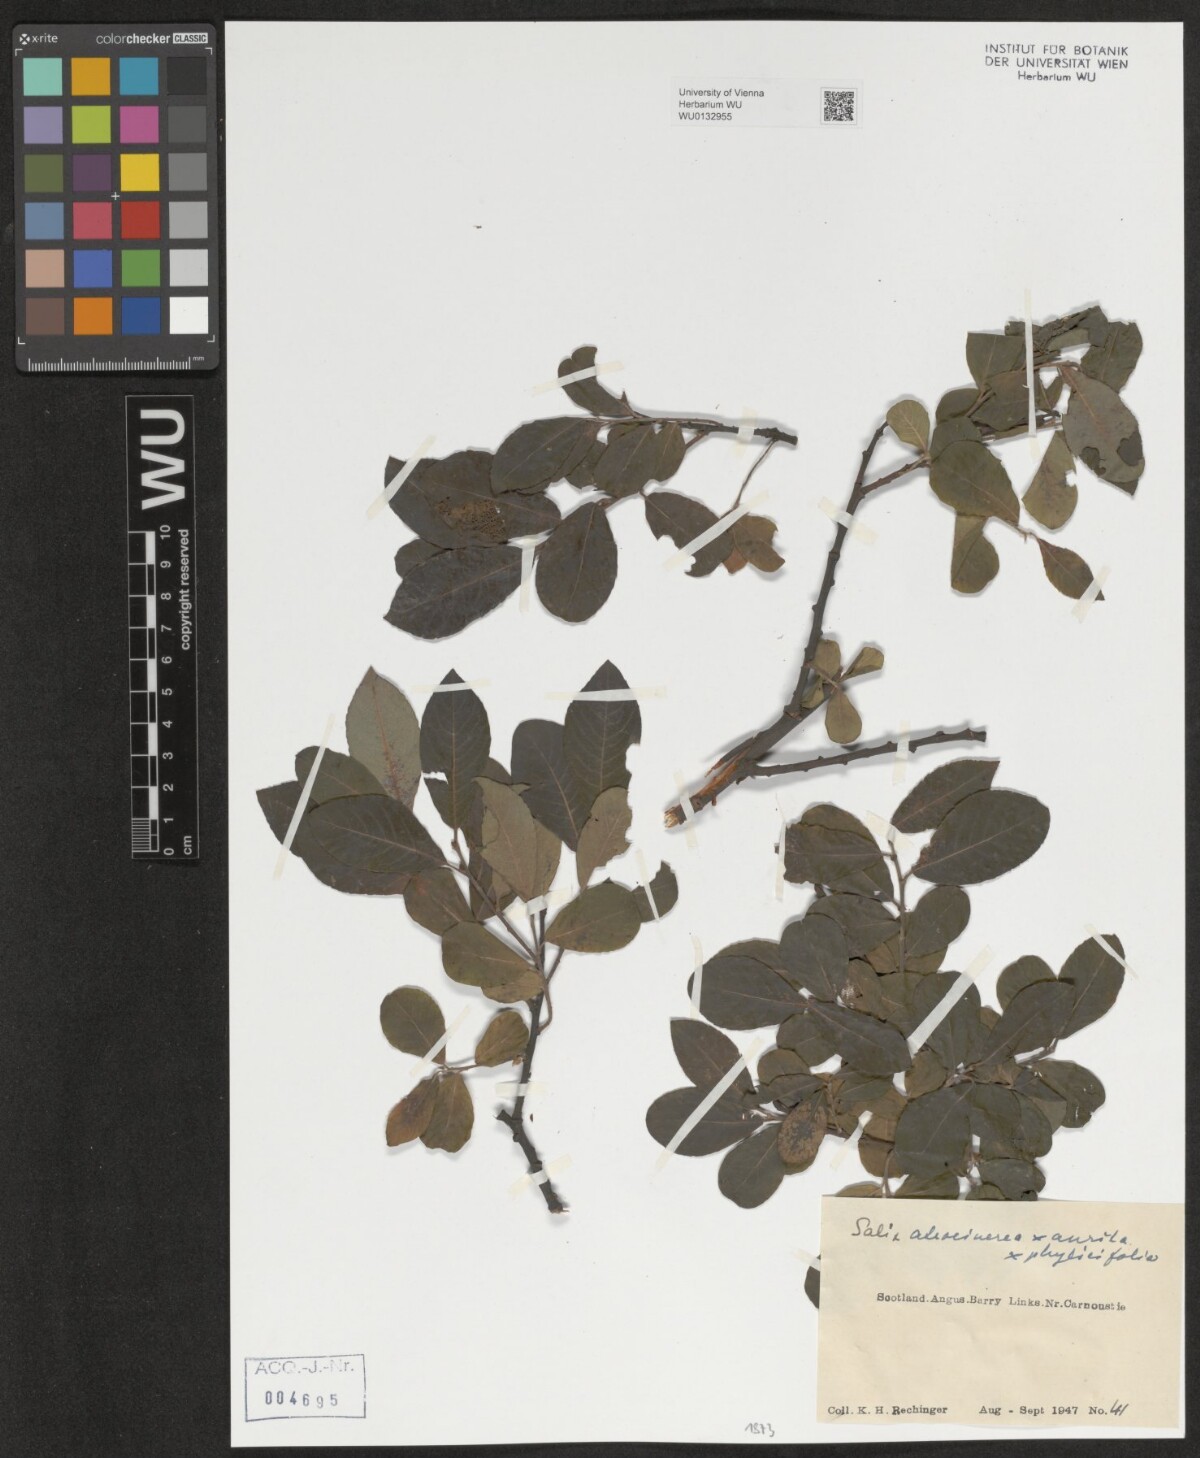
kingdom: Plantae
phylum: Tracheophyta
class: Magnoliopsida
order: Malpighiales
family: Salicaceae
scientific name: Salicaceae
